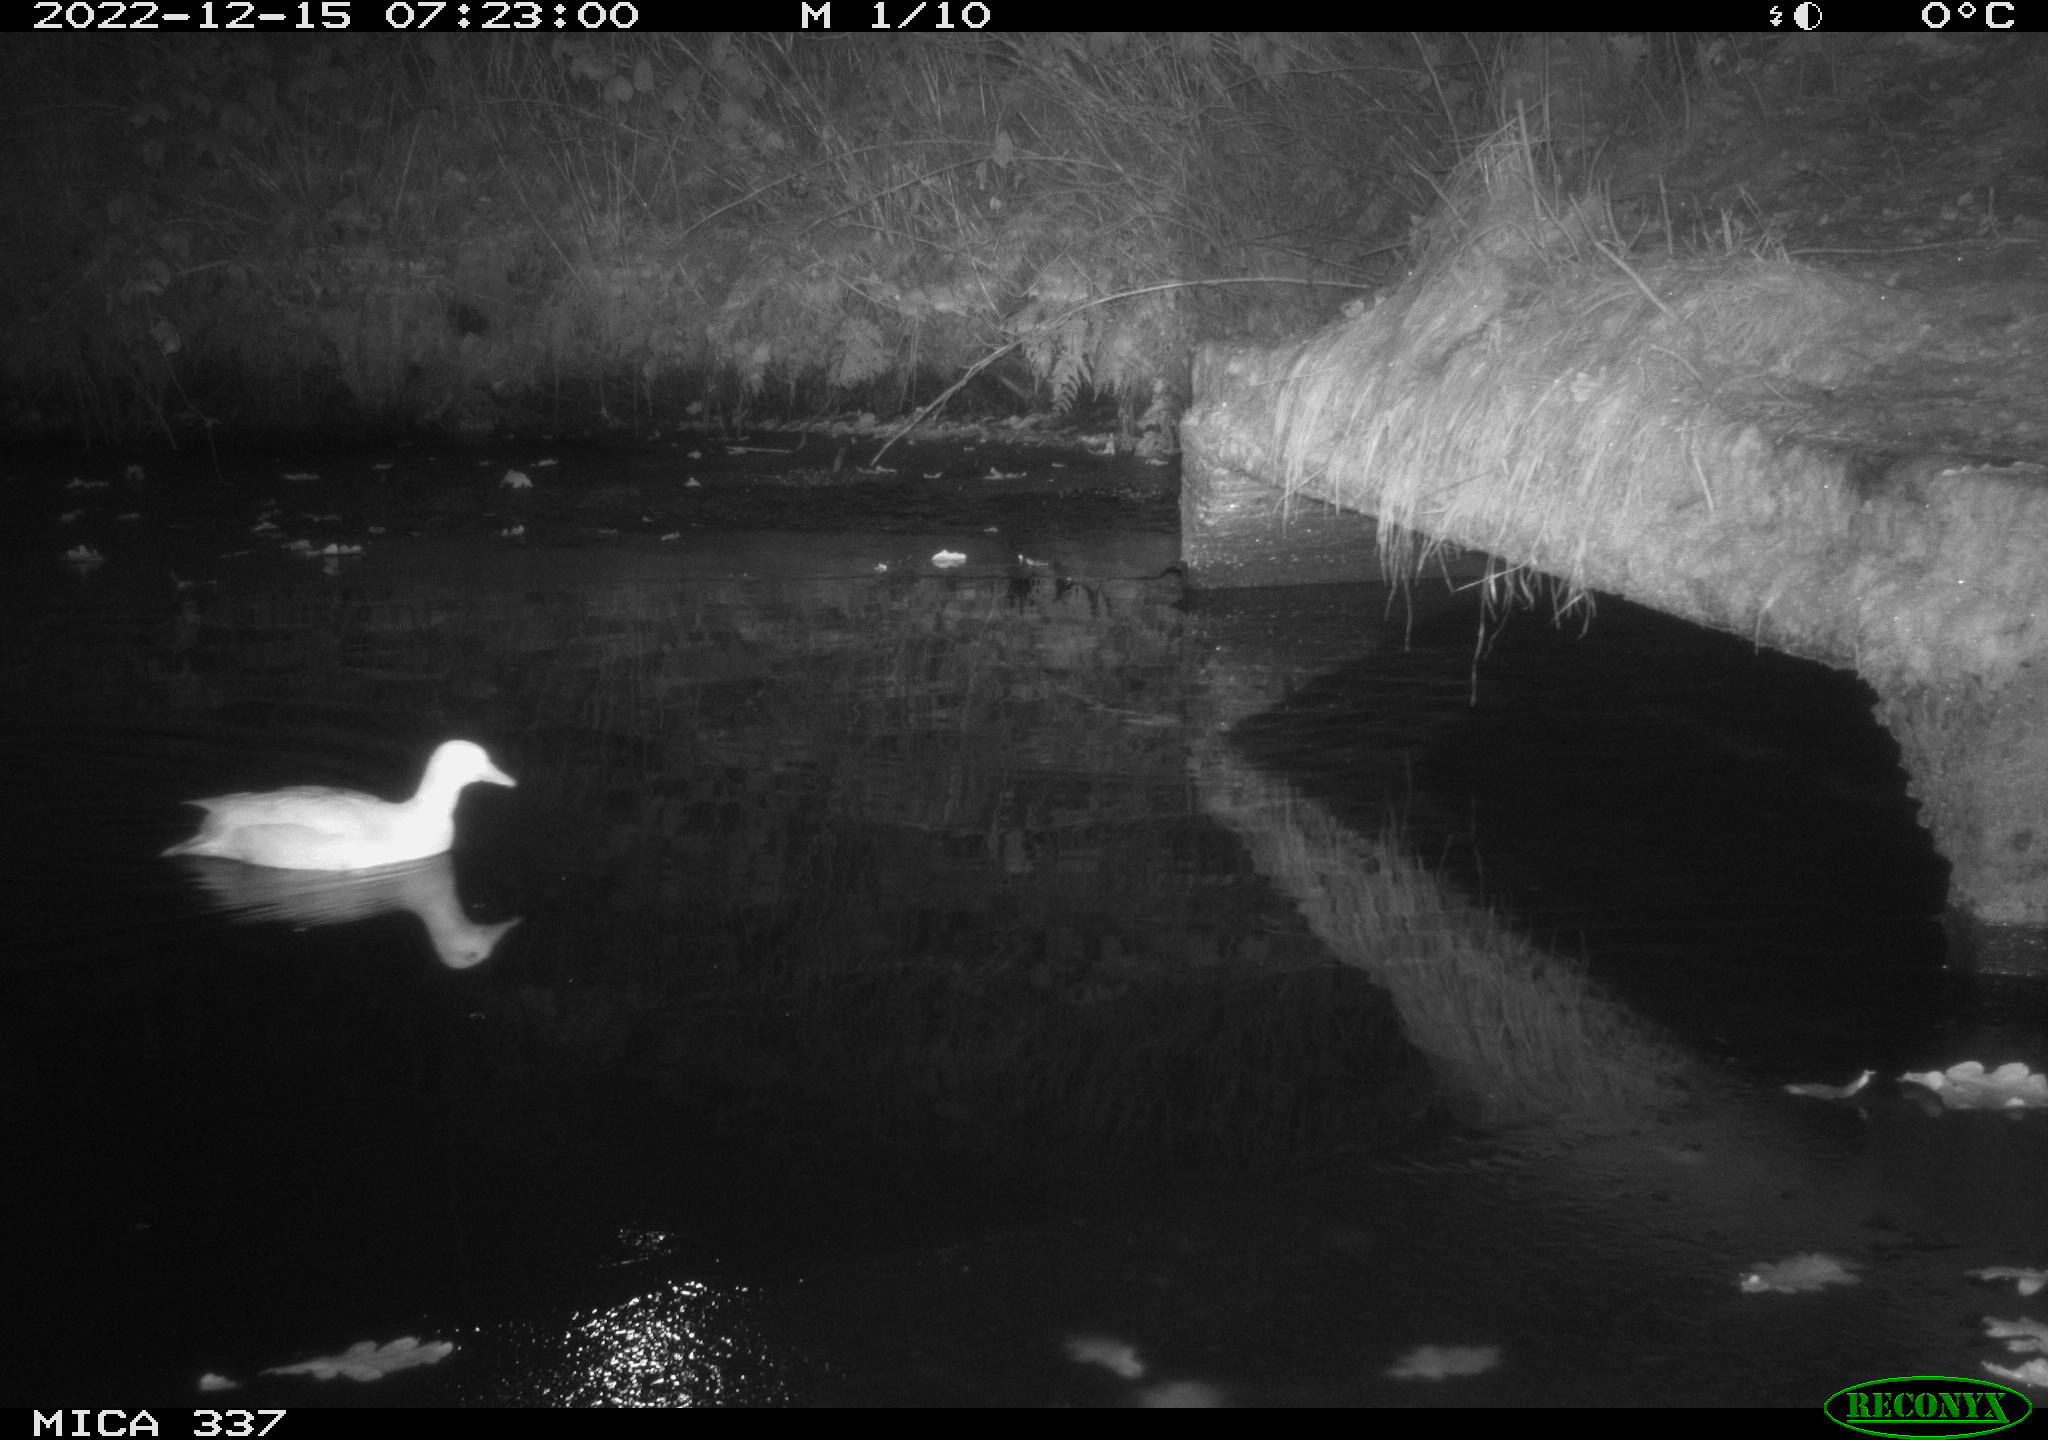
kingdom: Animalia
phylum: Chordata
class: Aves
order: Anseriformes
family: Anatidae
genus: Anas
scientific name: Anas
